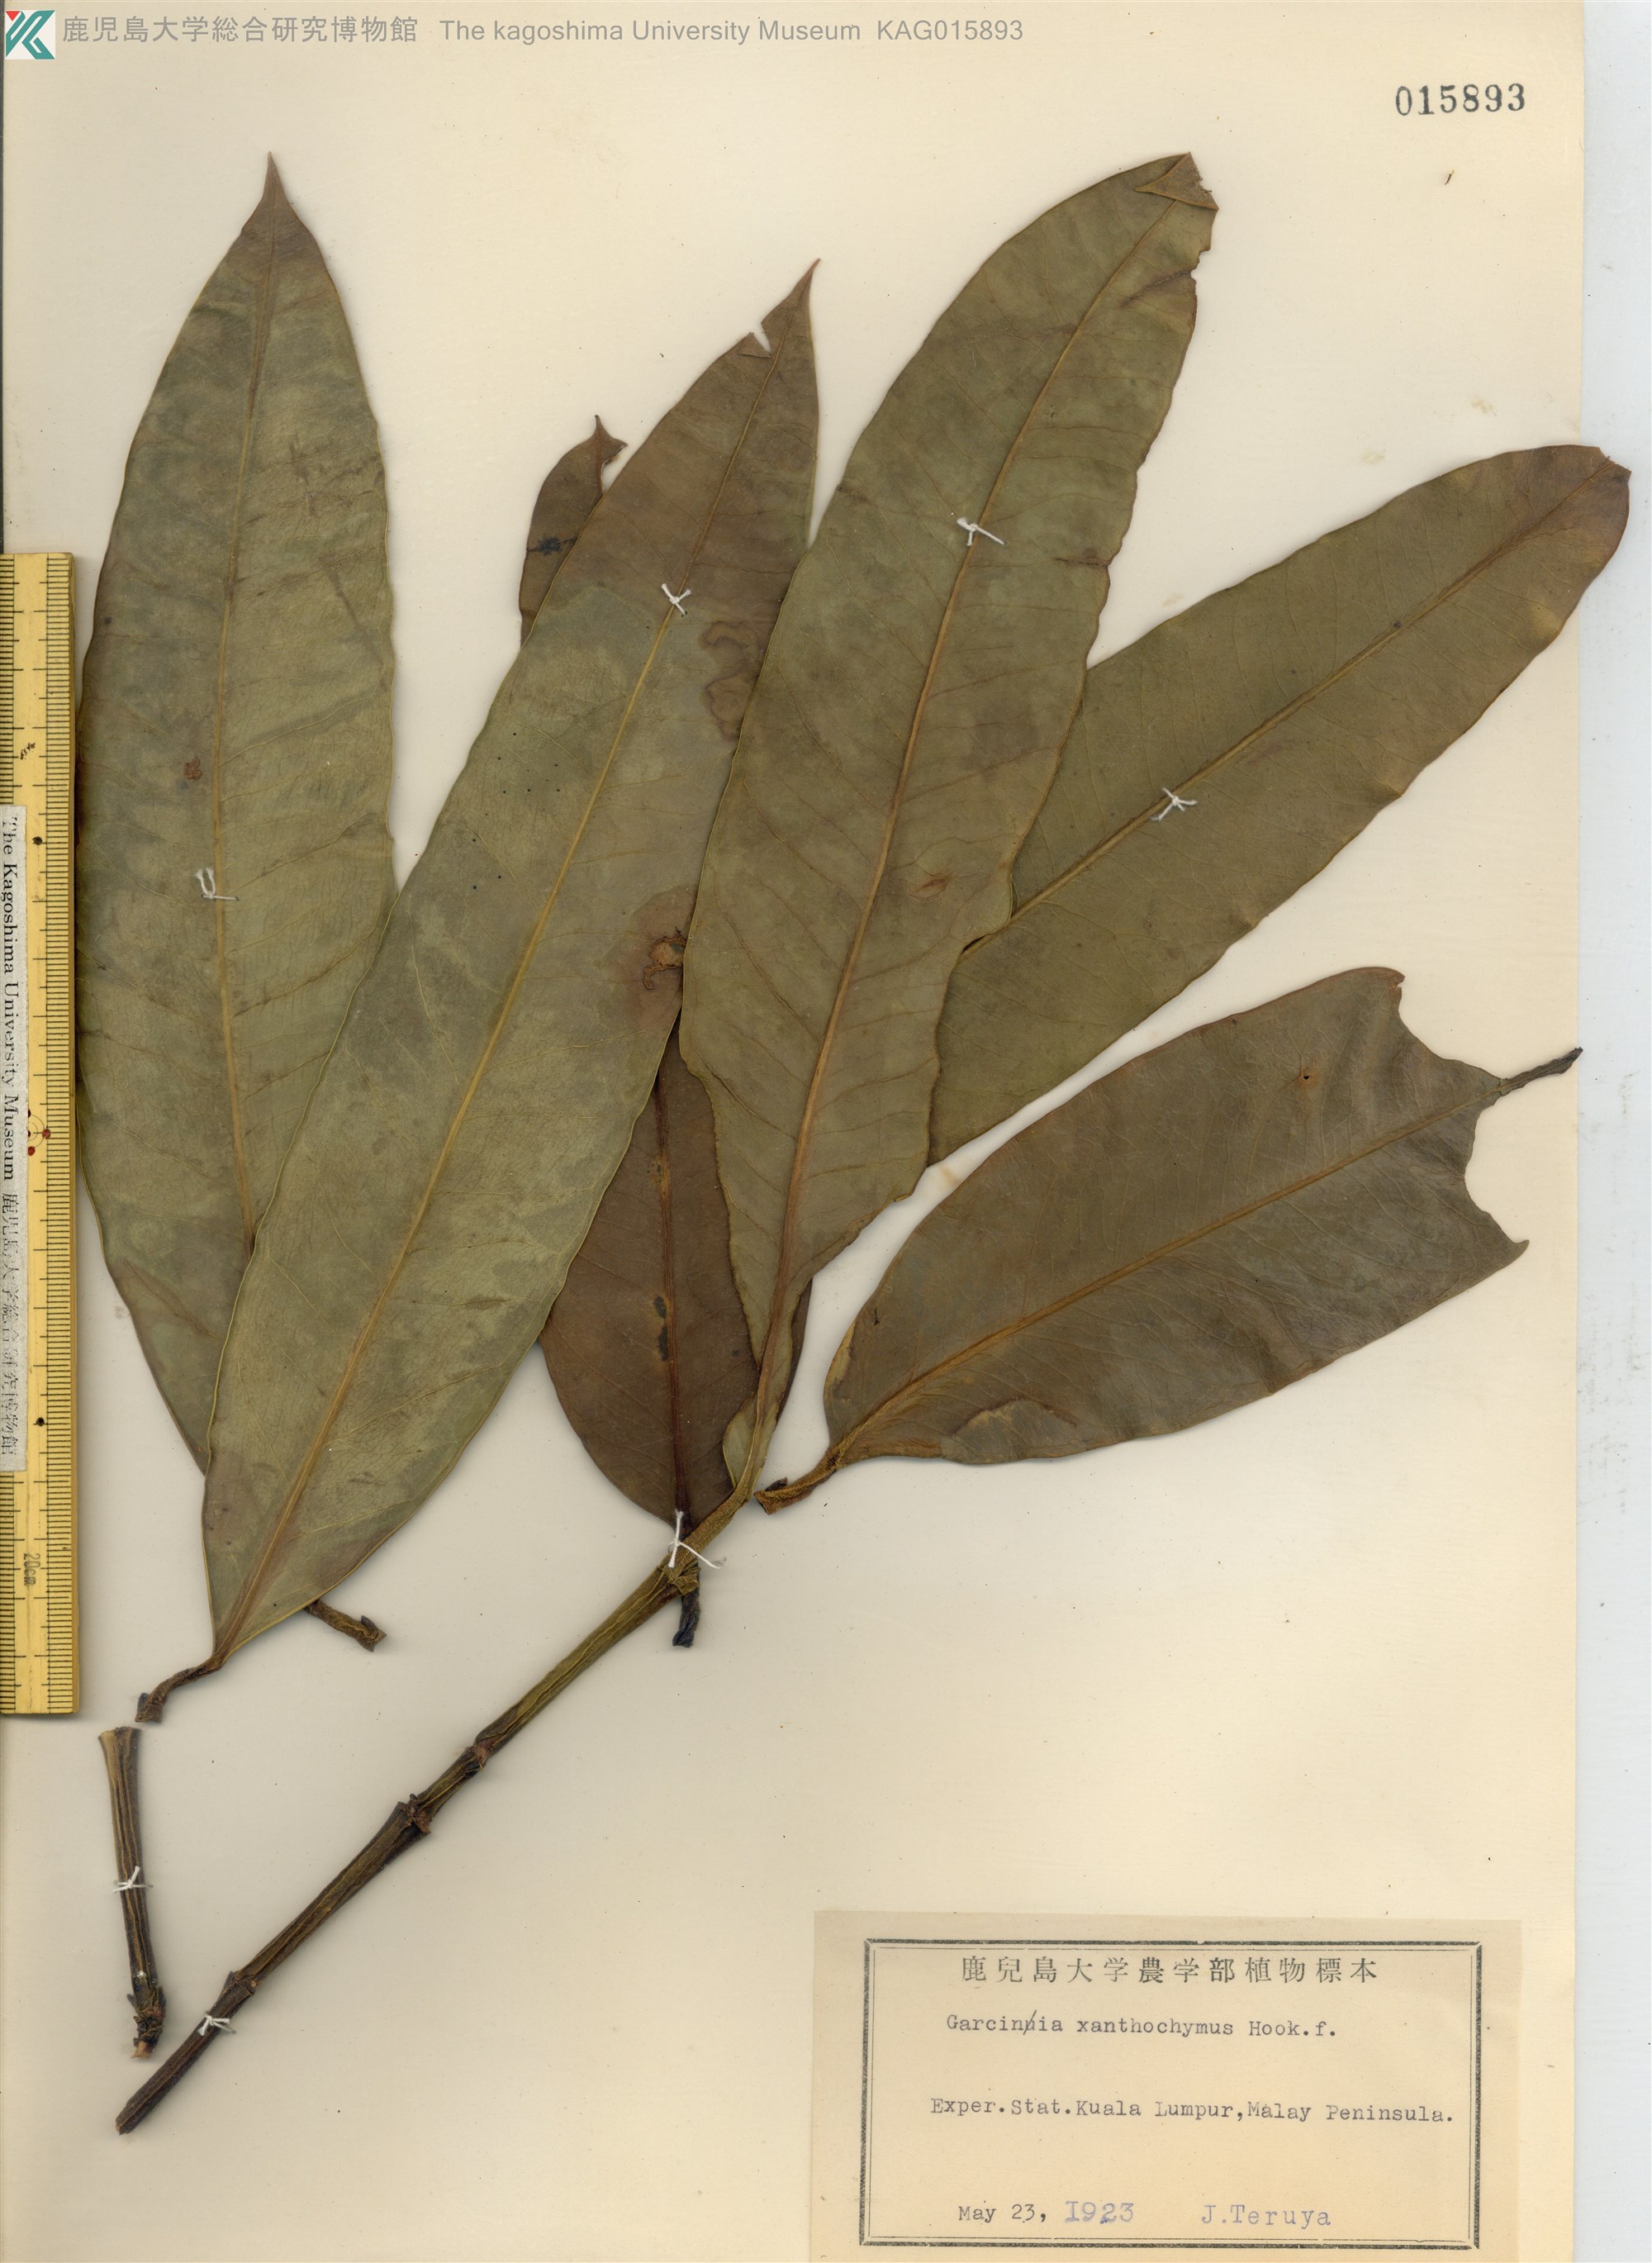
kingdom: Plantae
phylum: Tracheophyta
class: Magnoliopsida
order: Malpighiales
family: Clusiaceae
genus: Garcinia
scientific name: Garcinia
